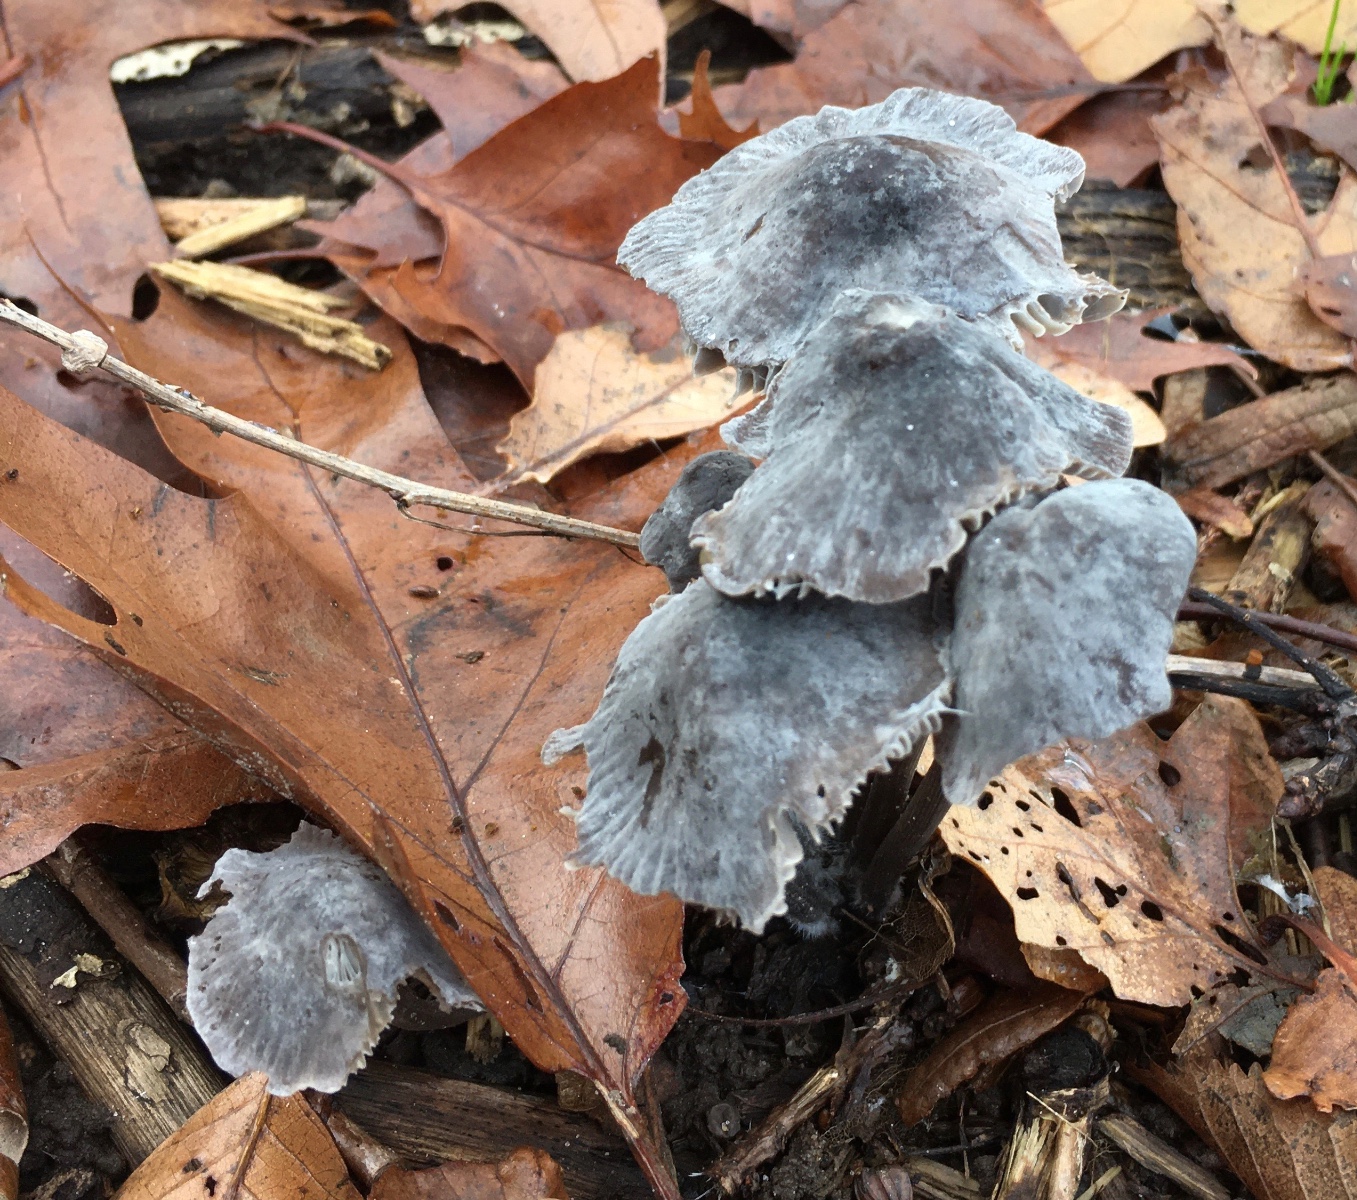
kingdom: Fungi
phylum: Basidiomycota
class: Agaricomycetes
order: Agaricales
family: Mycenaceae
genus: Mycena
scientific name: Mycena polygramma
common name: mangestribet huesvamp
